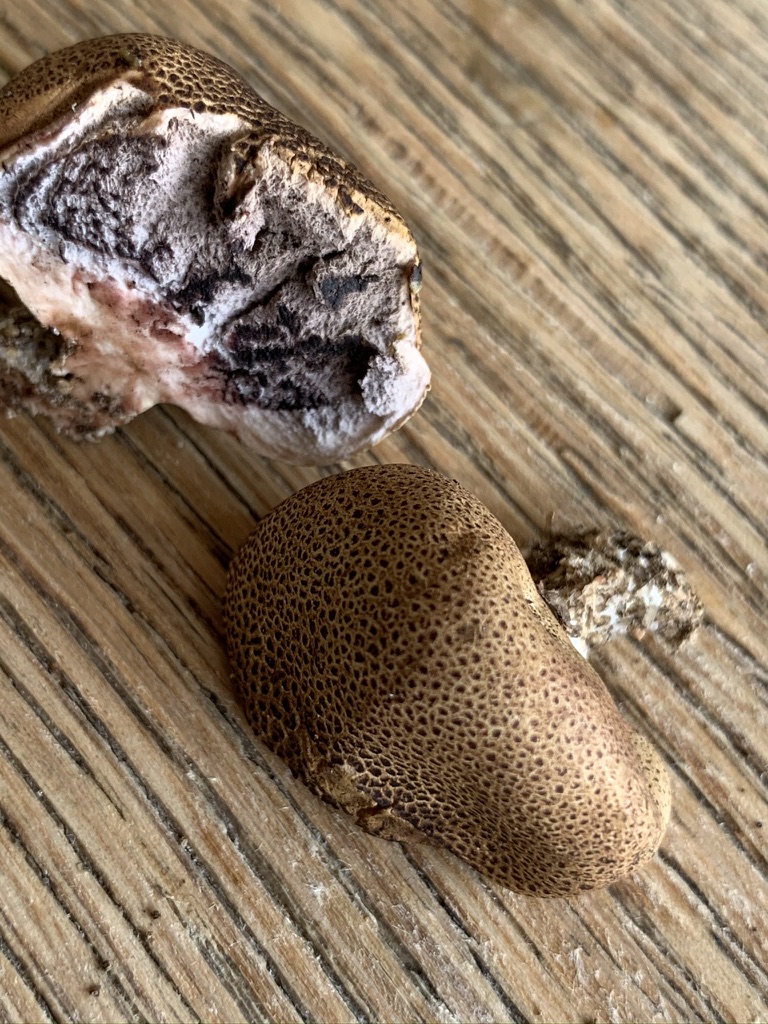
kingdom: Fungi
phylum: Basidiomycota
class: Agaricomycetes
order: Boletales
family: Sclerodermataceae
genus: Scleroderma
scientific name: Scleroderma areolatum
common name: plettet bruskbold
